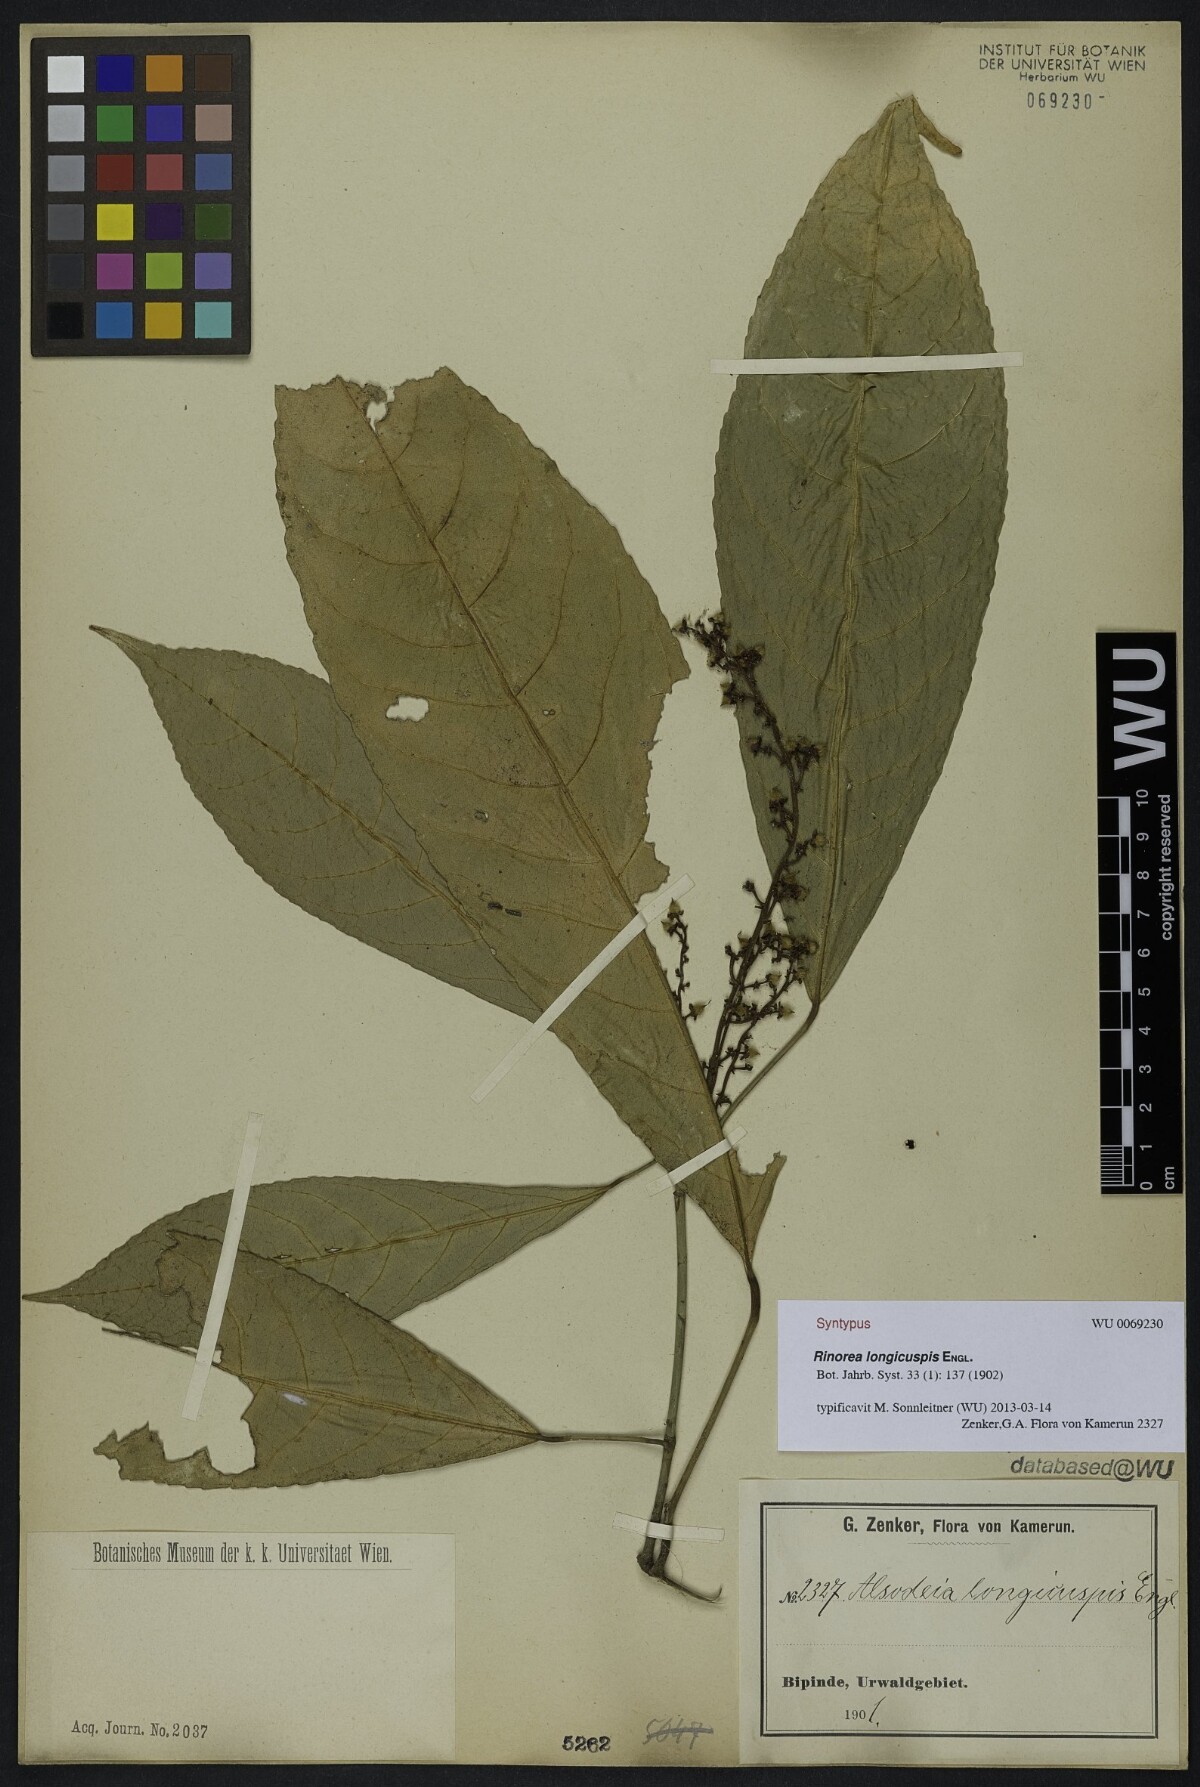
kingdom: Plantae
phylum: Tracheophyta
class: Magnoliopsida
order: Malpighiales
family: Violaceae
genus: Rinorea
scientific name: Rinorea welwitschii
